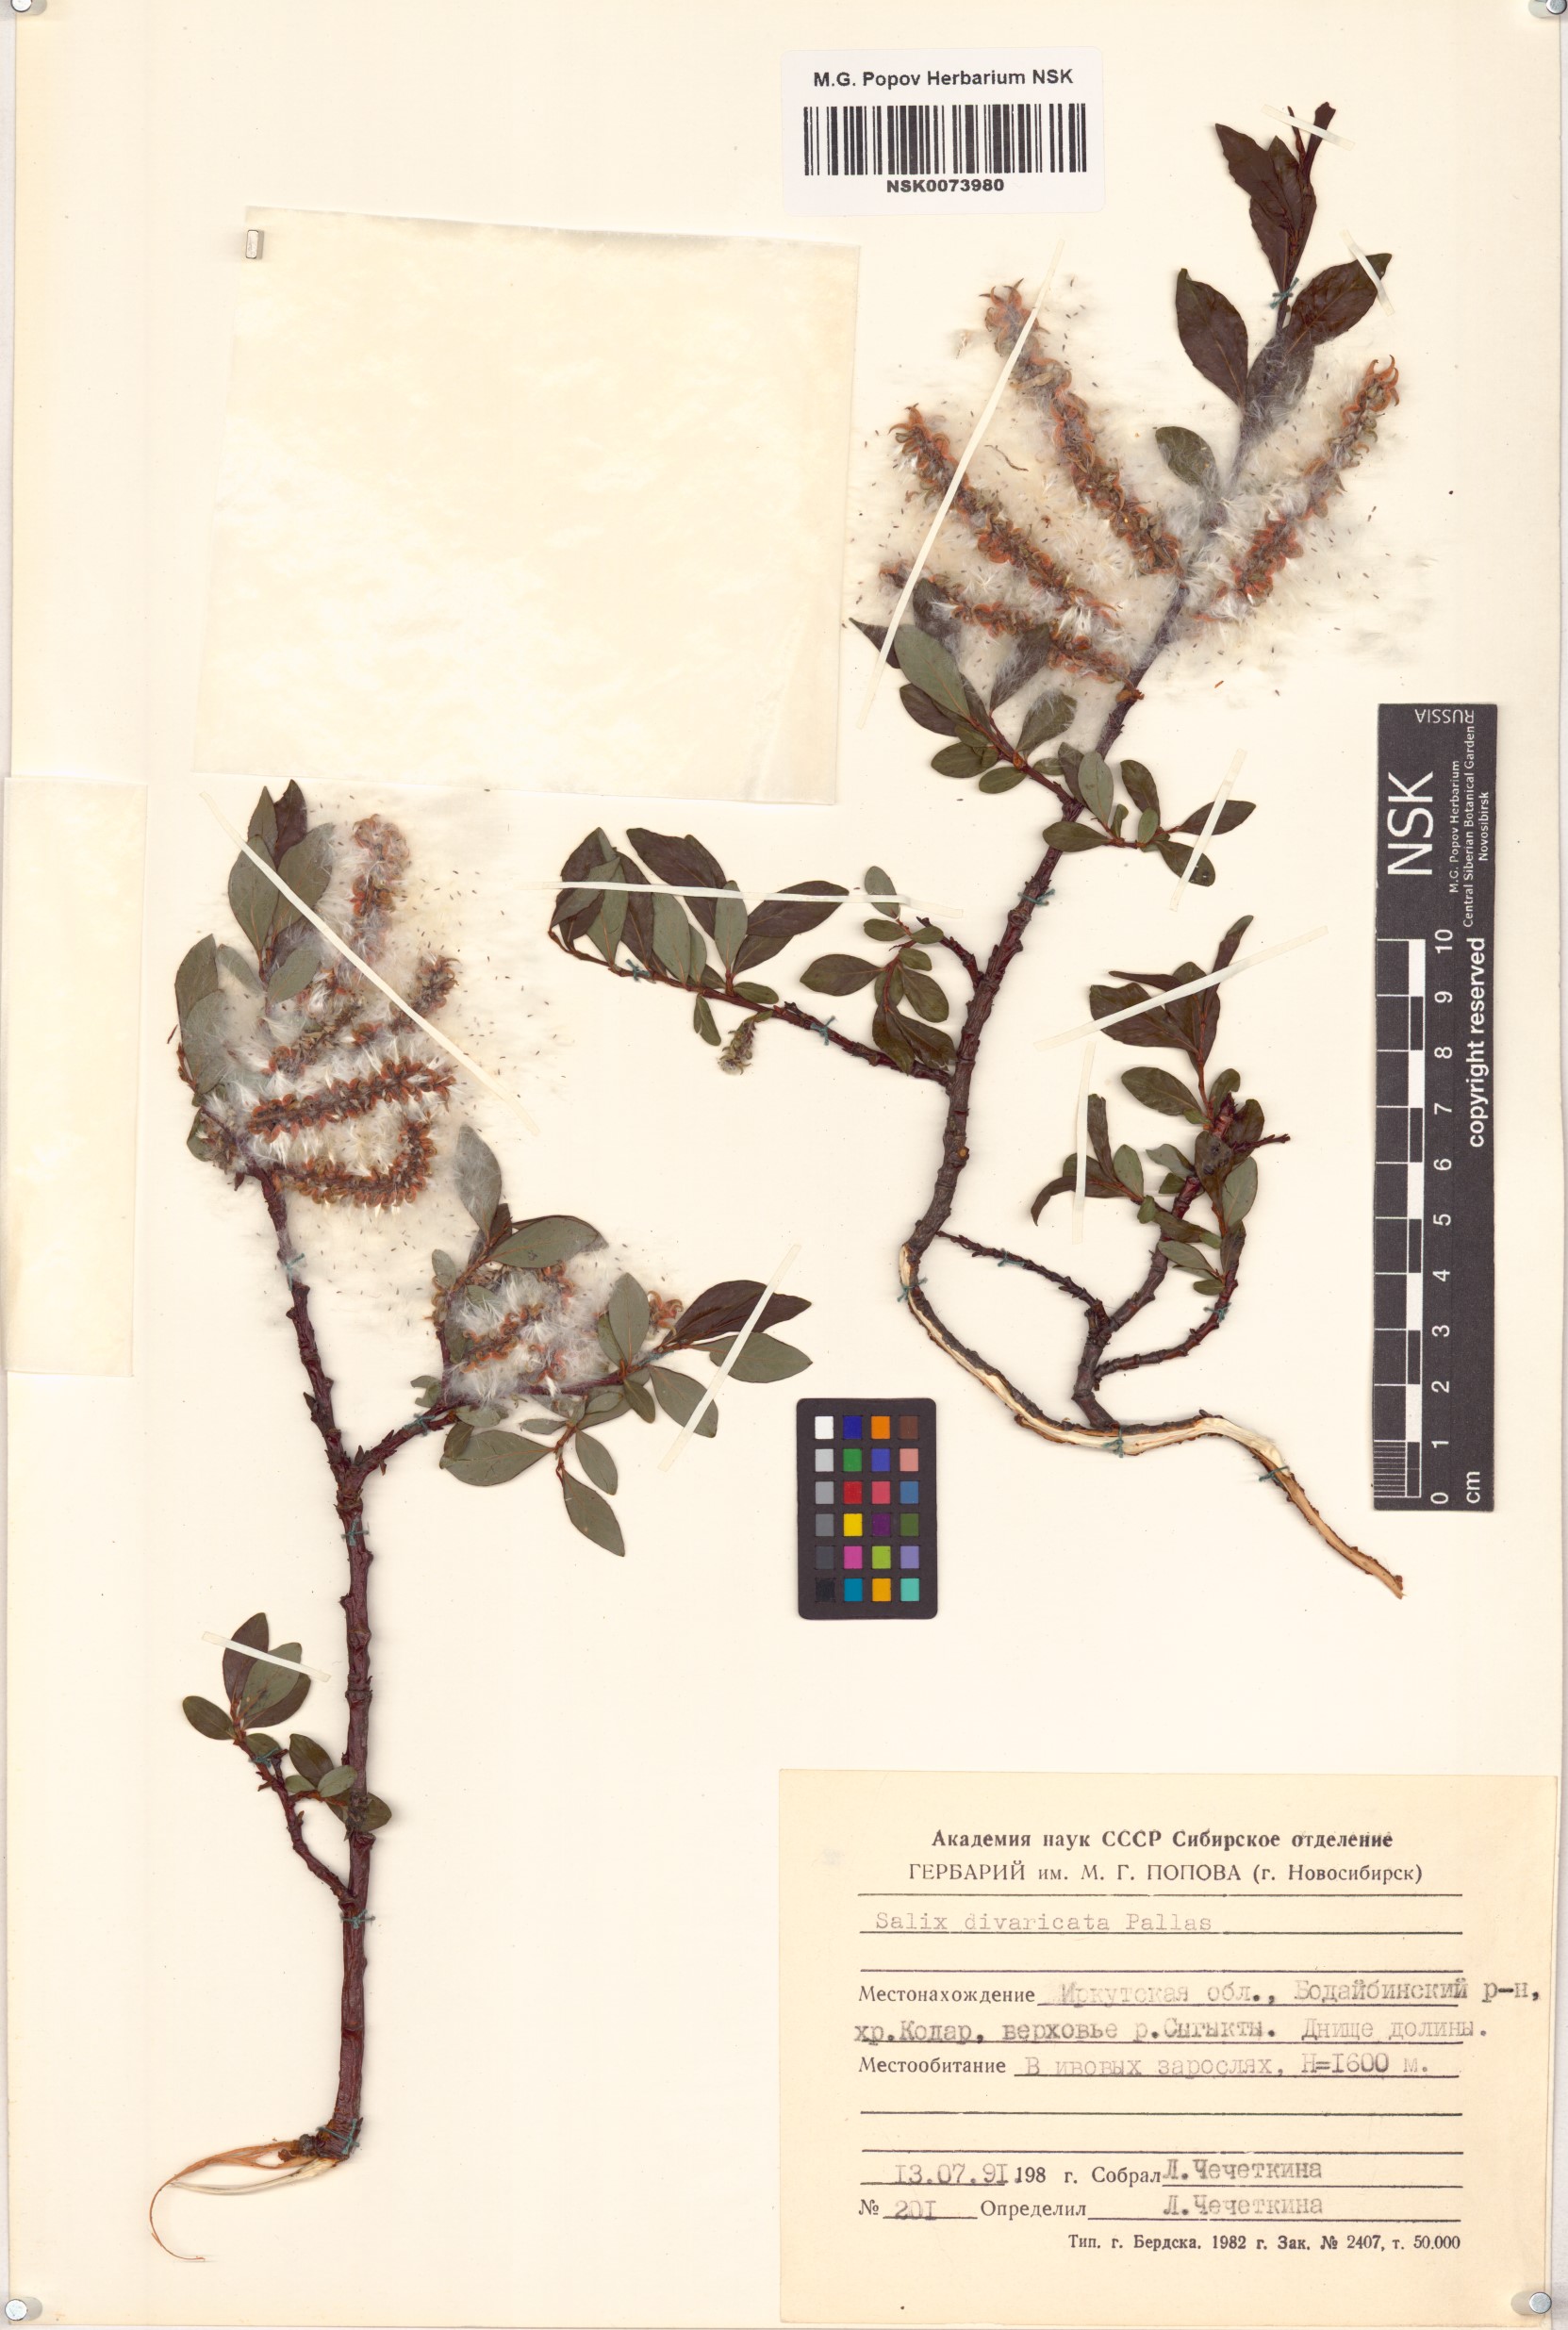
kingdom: Plantae
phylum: Tracheophyta
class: Magnoliopsida
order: Malpighiales
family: Salicaceae
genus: Salix
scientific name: Salix divaricata
